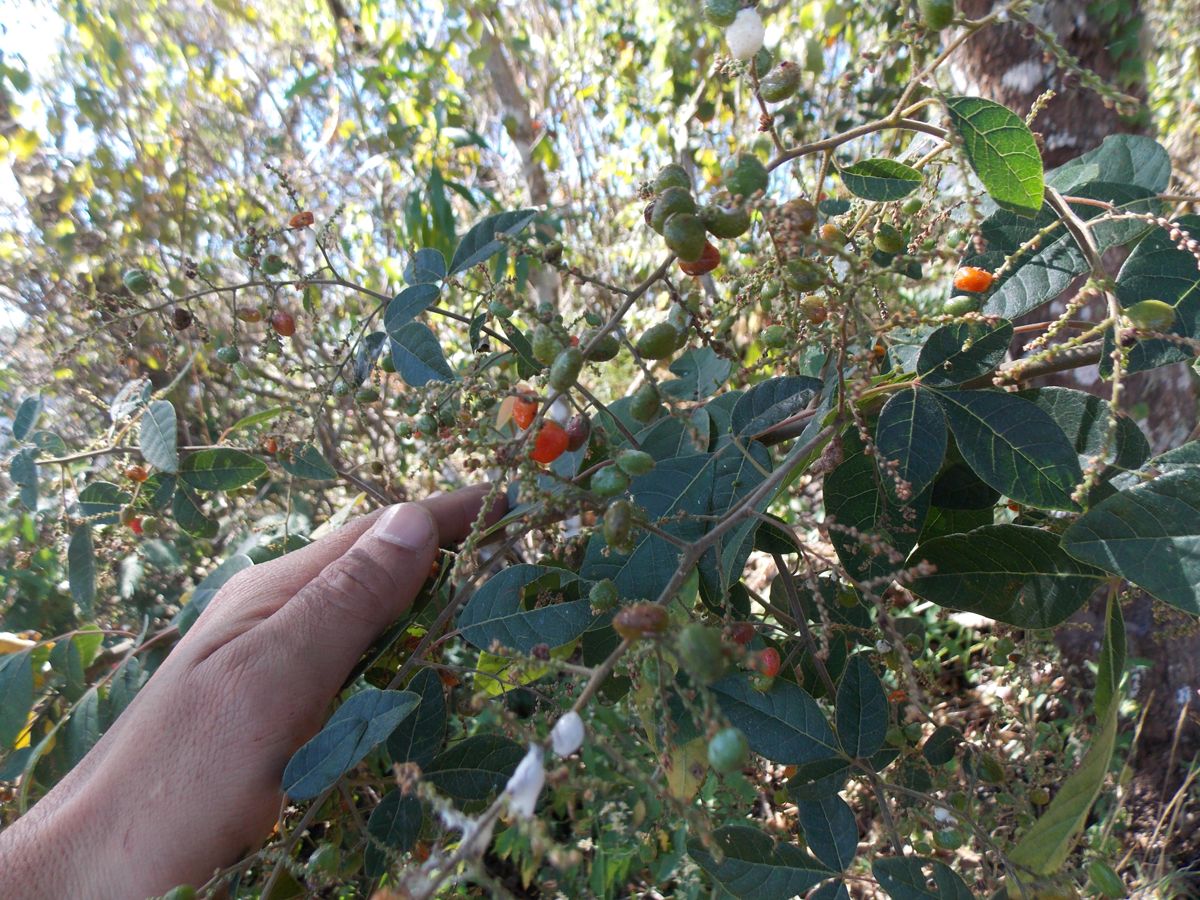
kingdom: Plantae
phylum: Tracheophyta
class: Magnoliopsida
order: Sapindales
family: Anacardiaceae
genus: Rhus
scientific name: Rhus terebinthifolia
